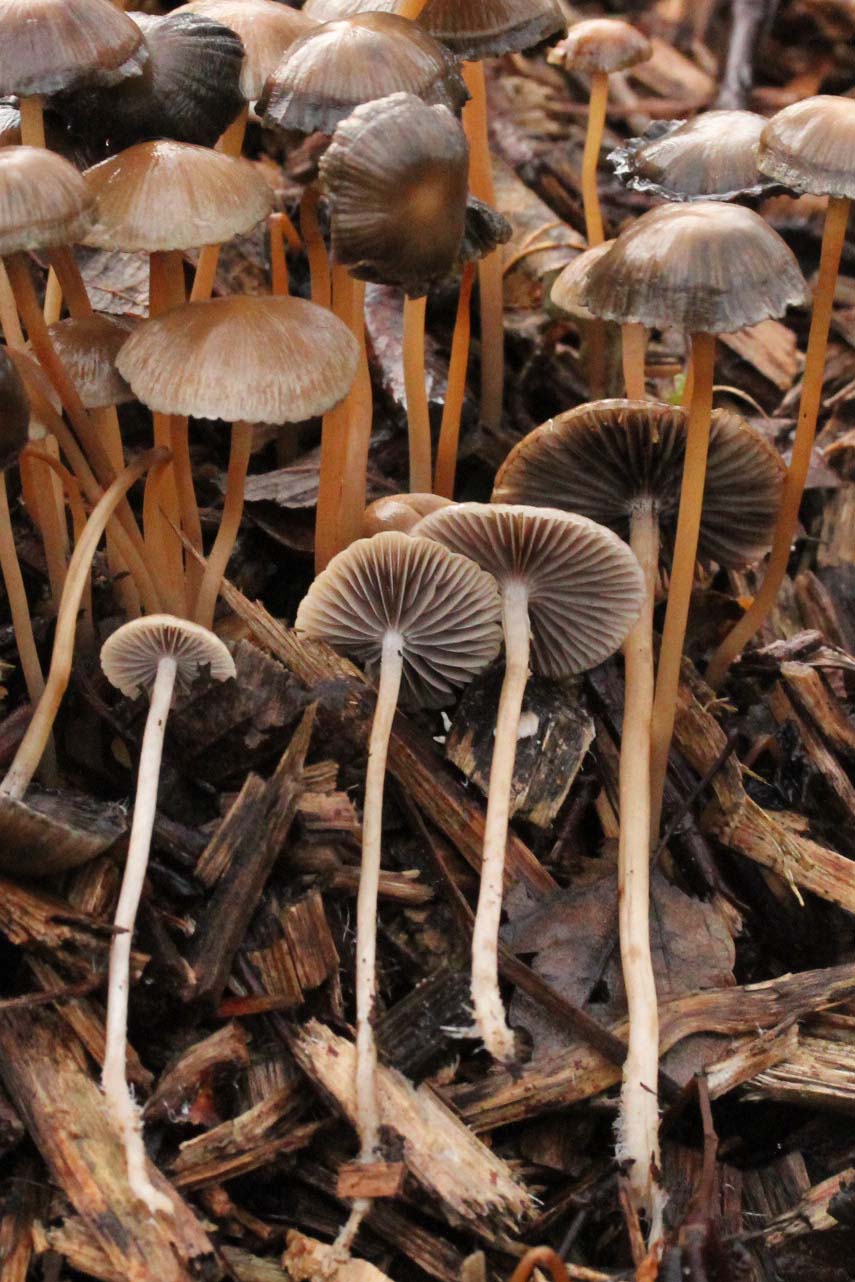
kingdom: Fungi
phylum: Basidiomycota
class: Agaricomycetes
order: Agaricales
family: Psathyrellaceae
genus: Psathyrella
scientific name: Psathyrella microrhiza
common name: rod-mørkhat
